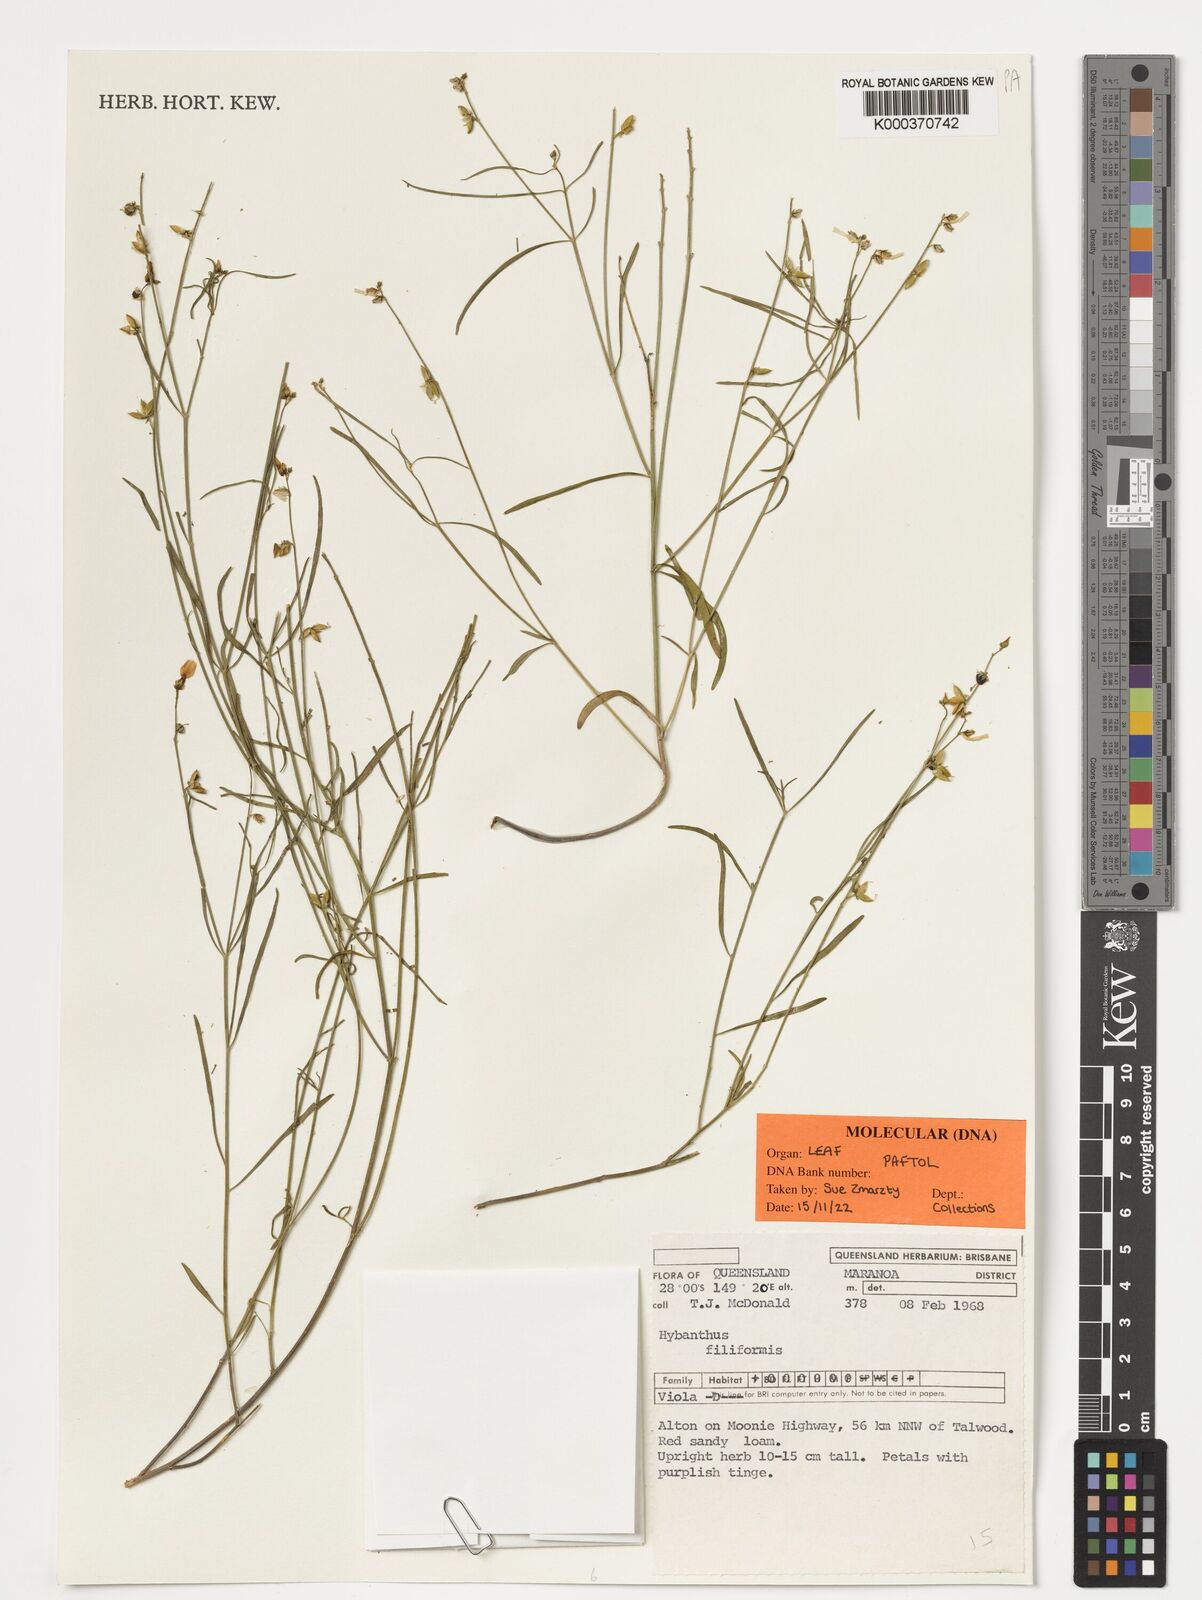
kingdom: Plantae
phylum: Tracheophyta
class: Magnoliopsida
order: Malpighiales
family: Violaceae
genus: Pigea
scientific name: Pigea monopetala
